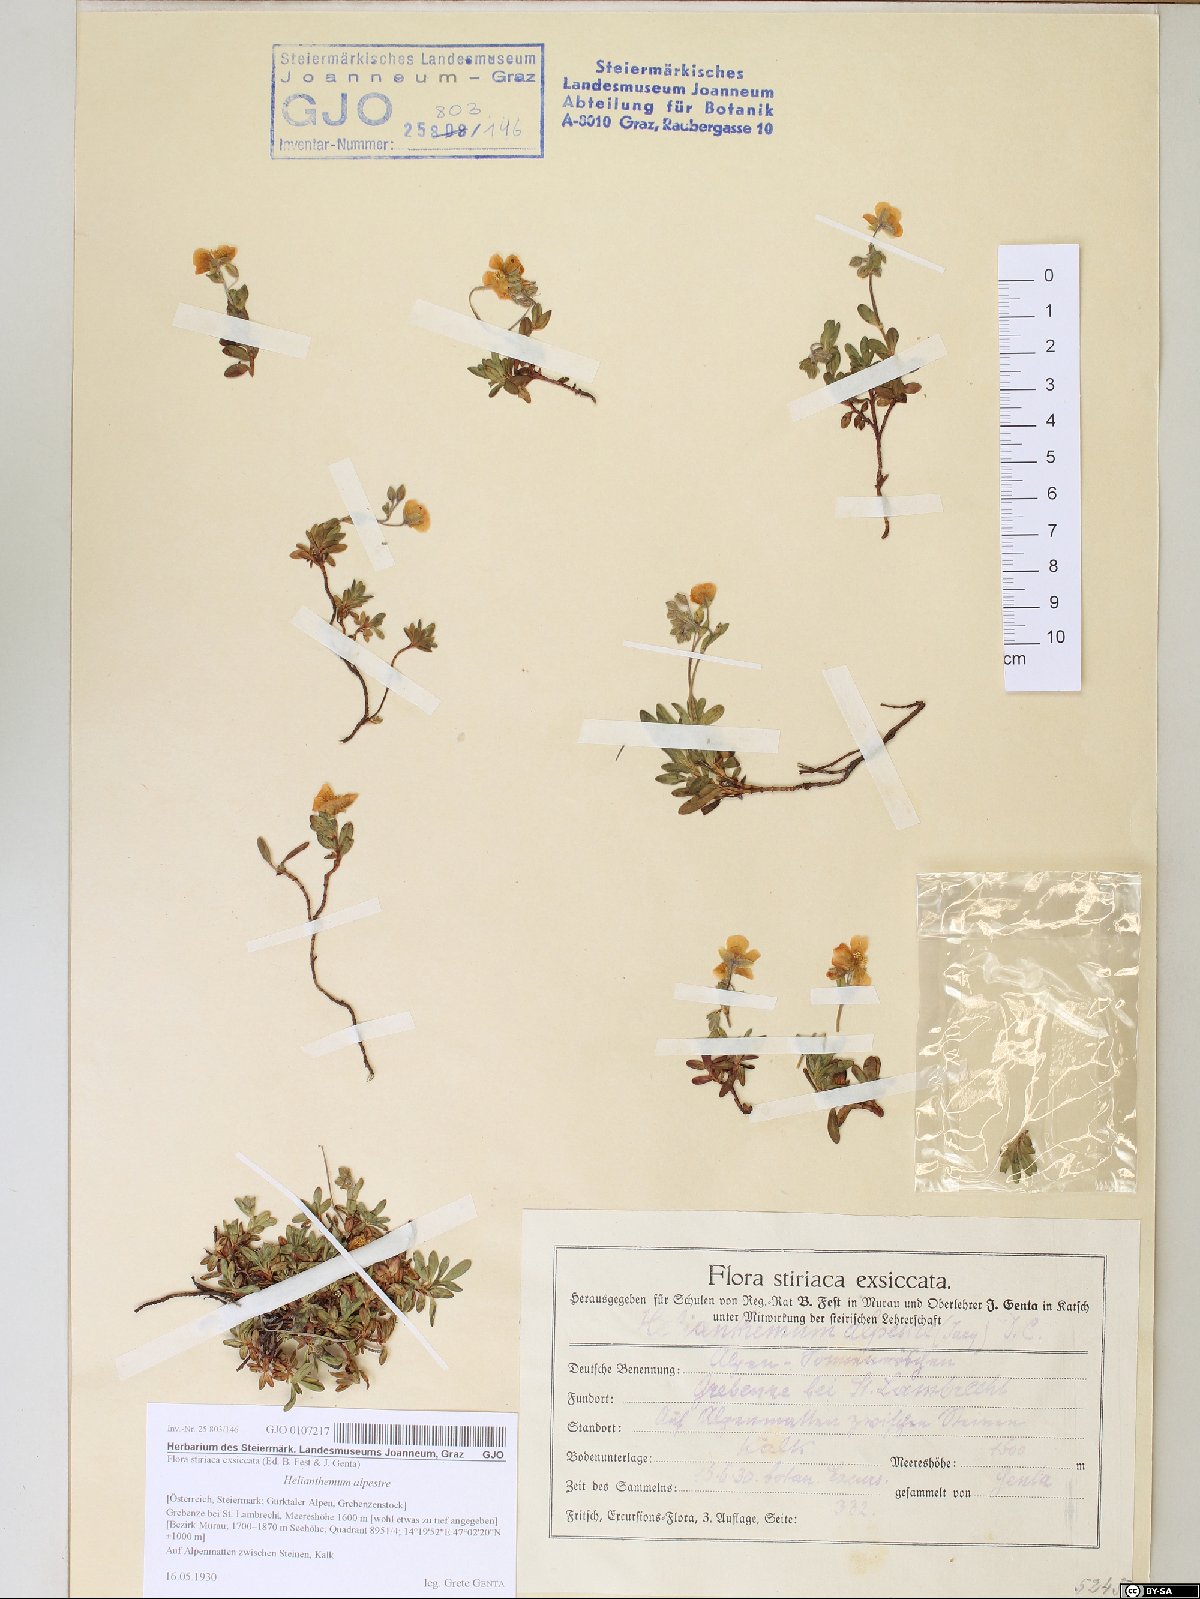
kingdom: Plantae
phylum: Tracheophyta
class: Magnoliopsida
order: Malvales
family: Cistaceae
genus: Helianthemum
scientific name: Helianthemum alpestre
